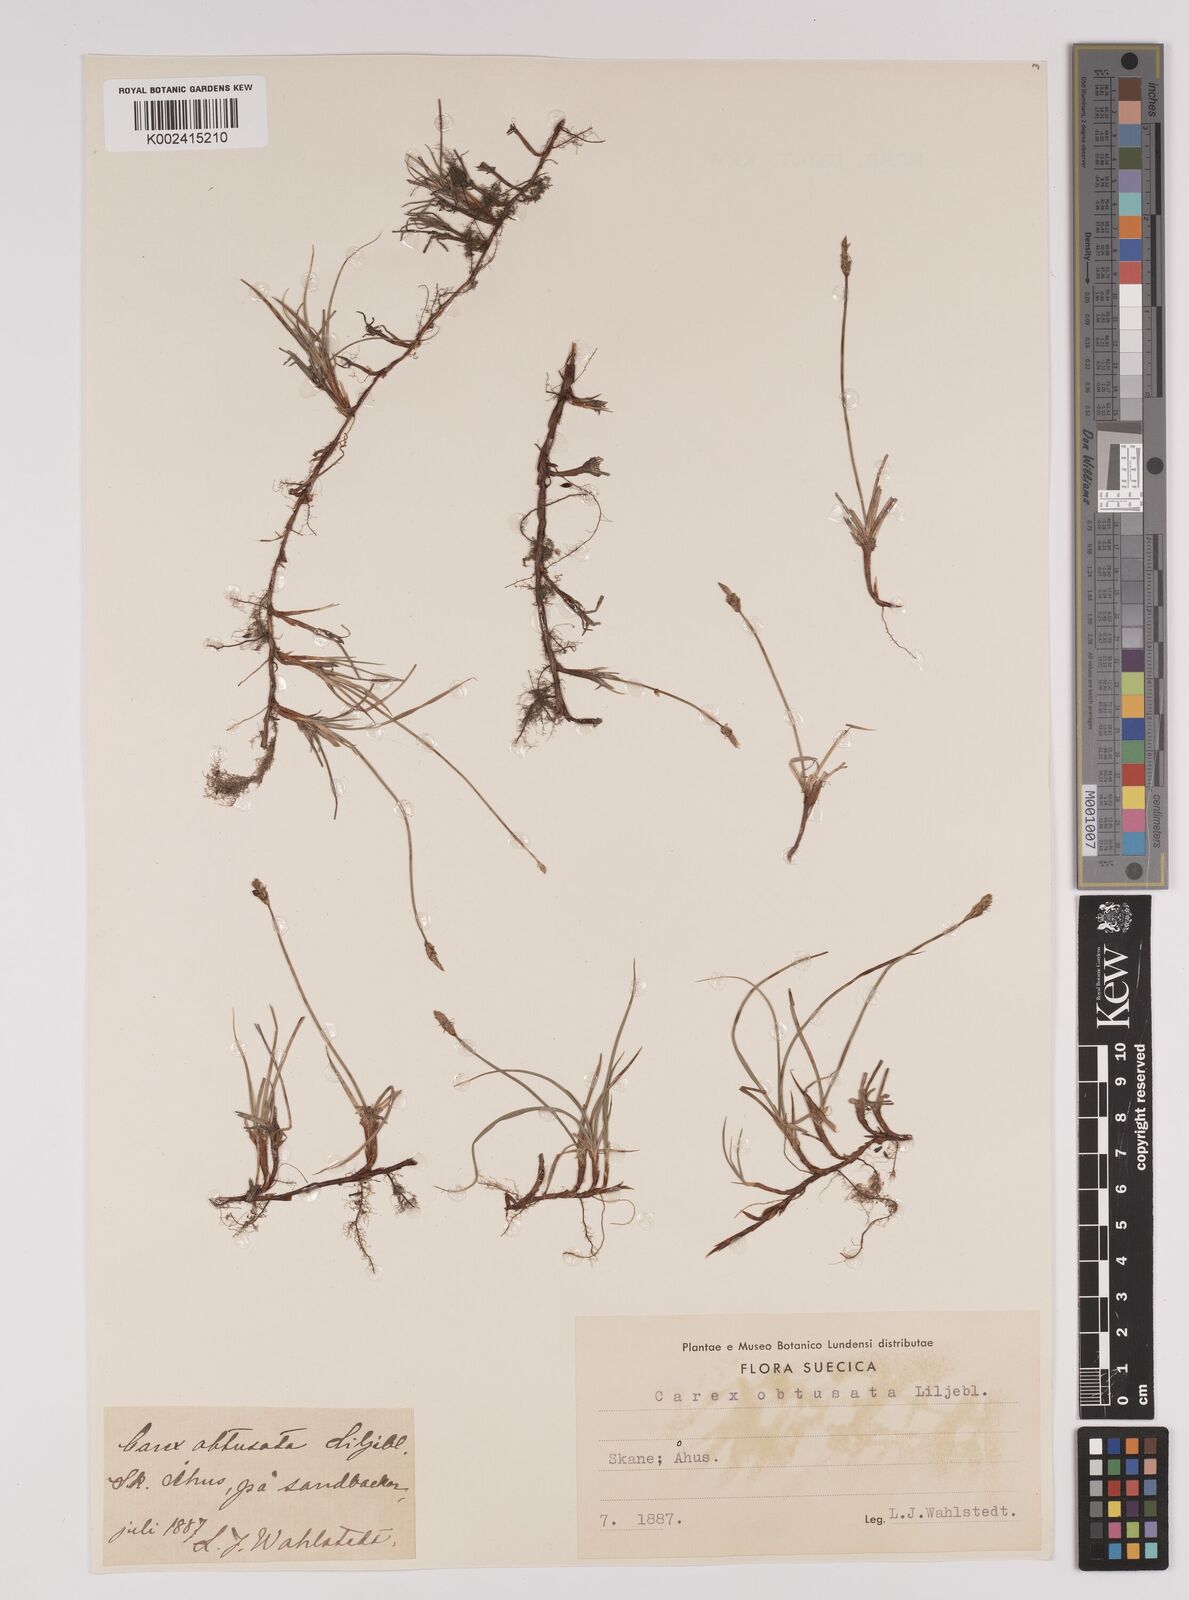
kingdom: Plantae
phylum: Tracheophyta
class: Liliopsida
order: Poales
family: Cyperaceae
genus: Carex
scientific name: Carex obtusata
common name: Blunt sedge
